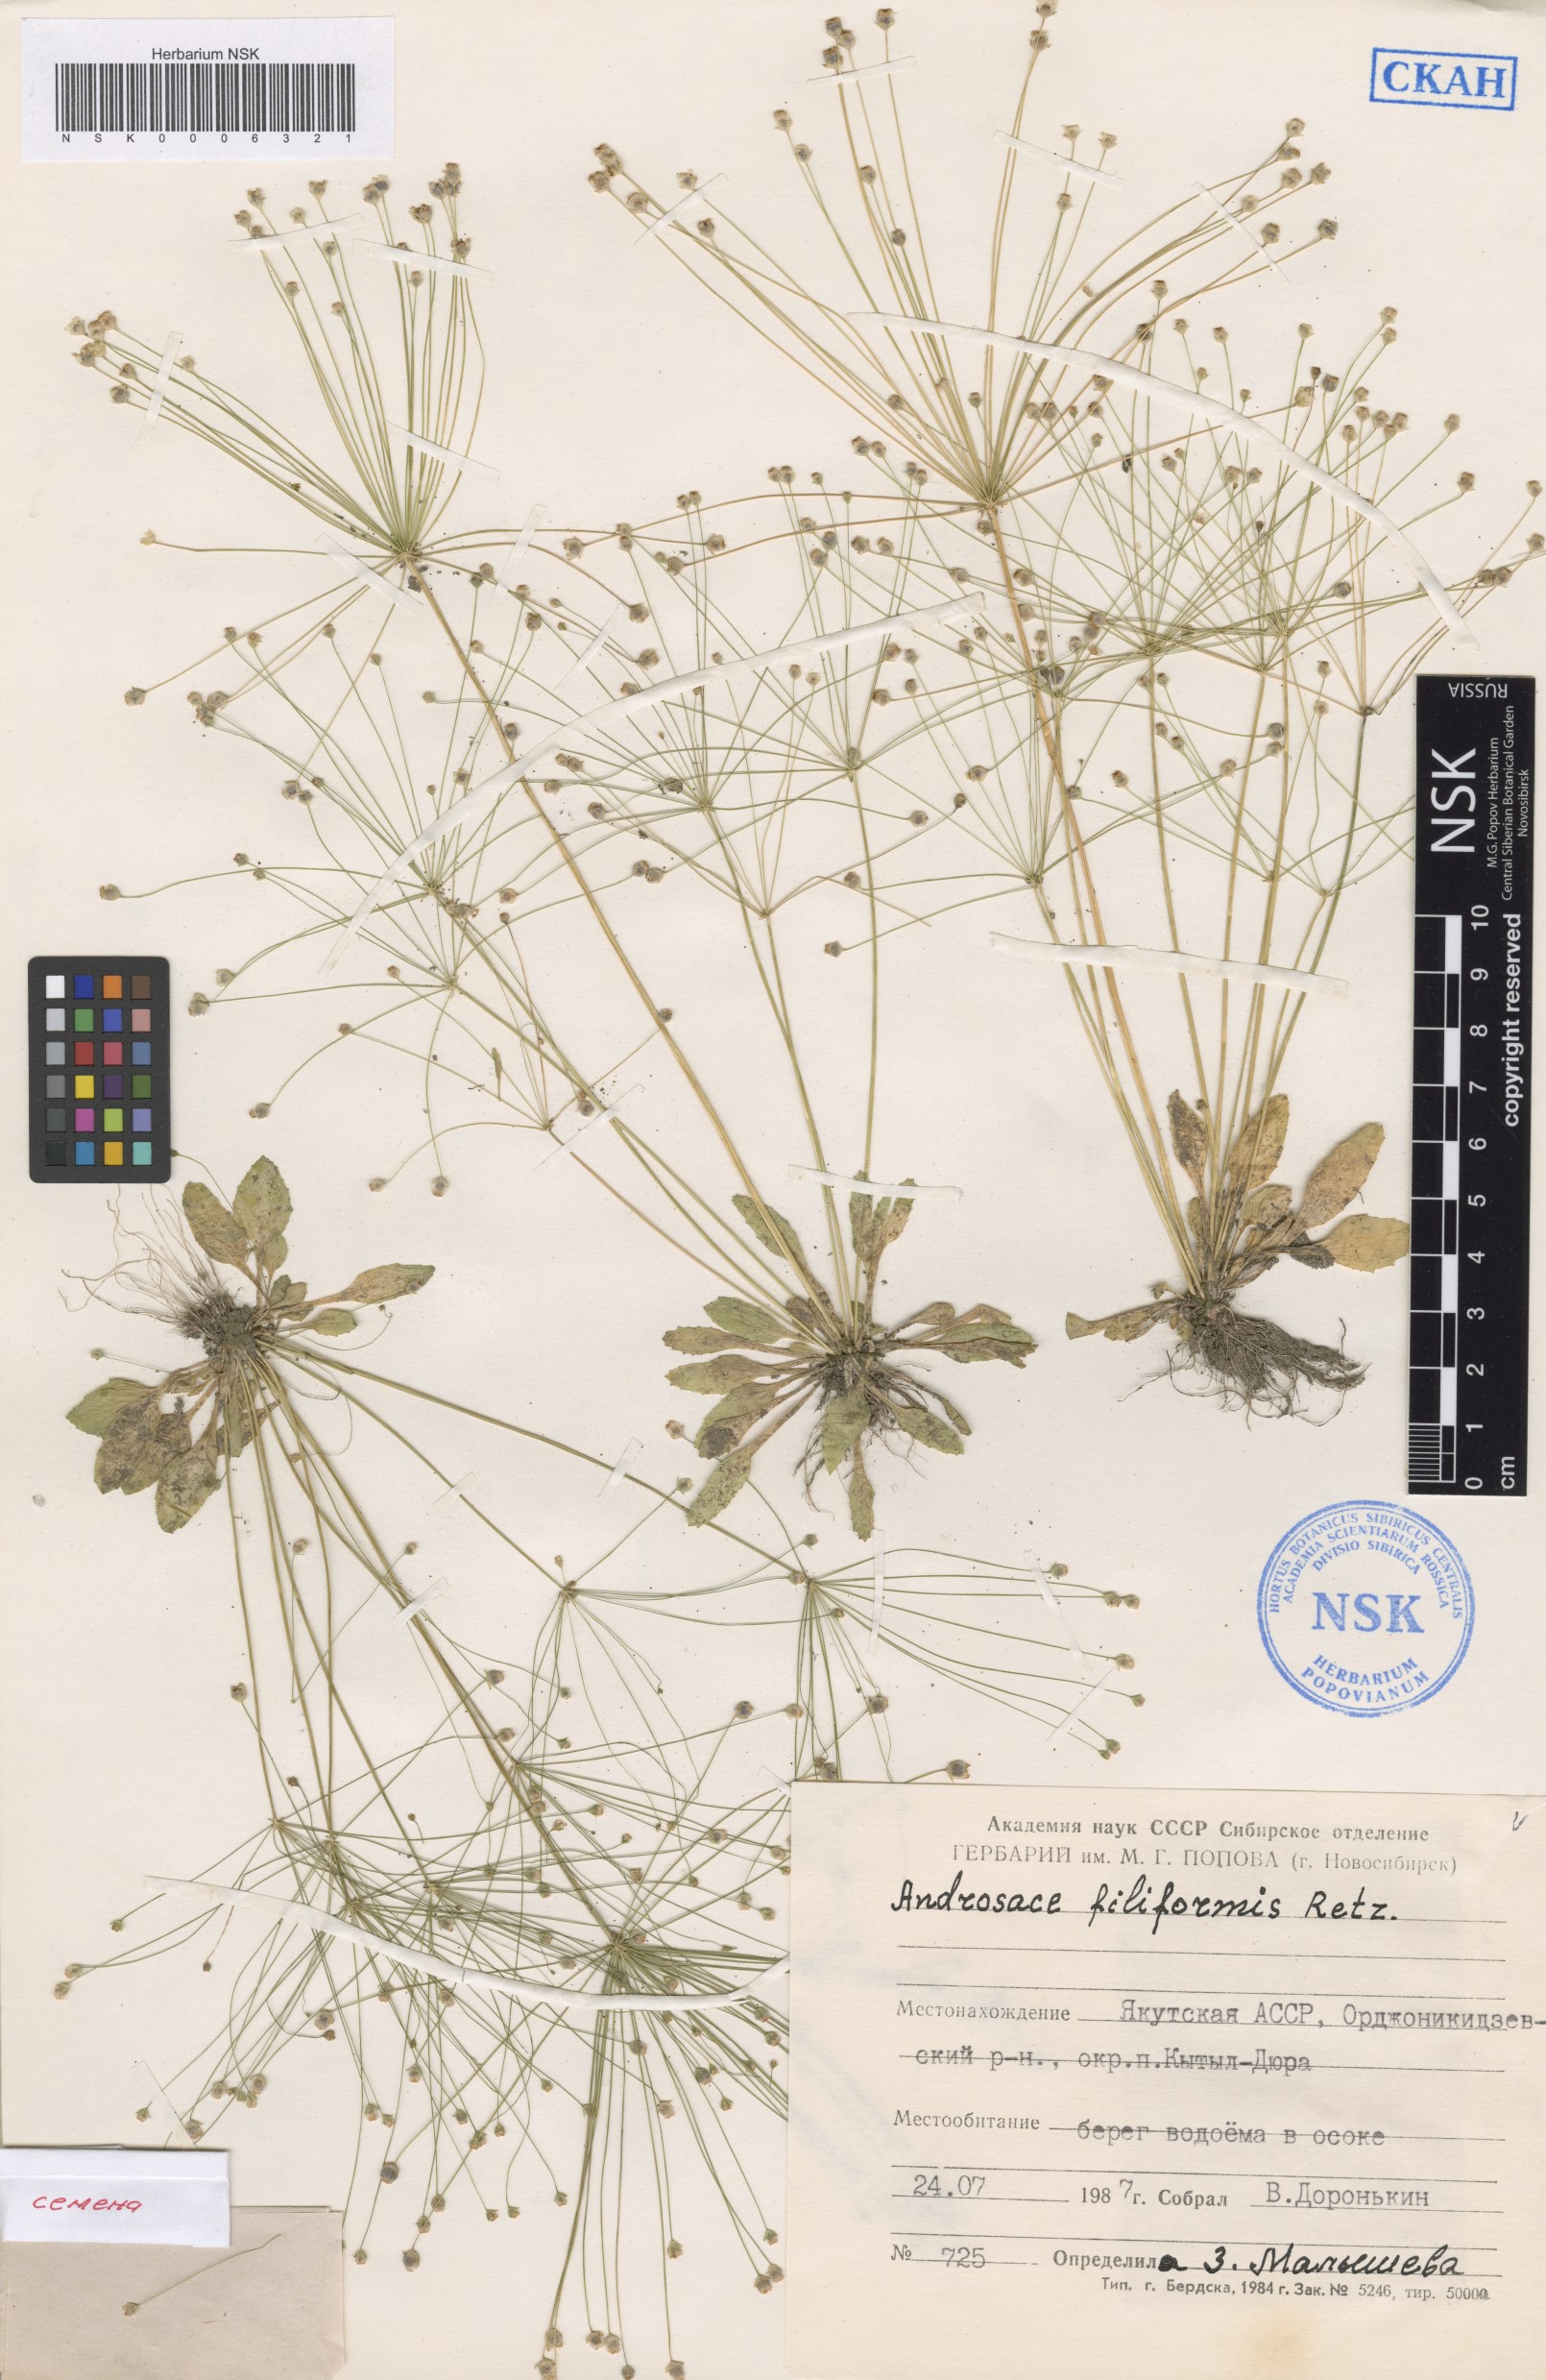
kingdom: Plantae
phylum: Tracheophyta
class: Magnoliopsida
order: Ericales
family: Primulaceae
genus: Androsace
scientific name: Androsace filiformis
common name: Filiform rock jasmine
